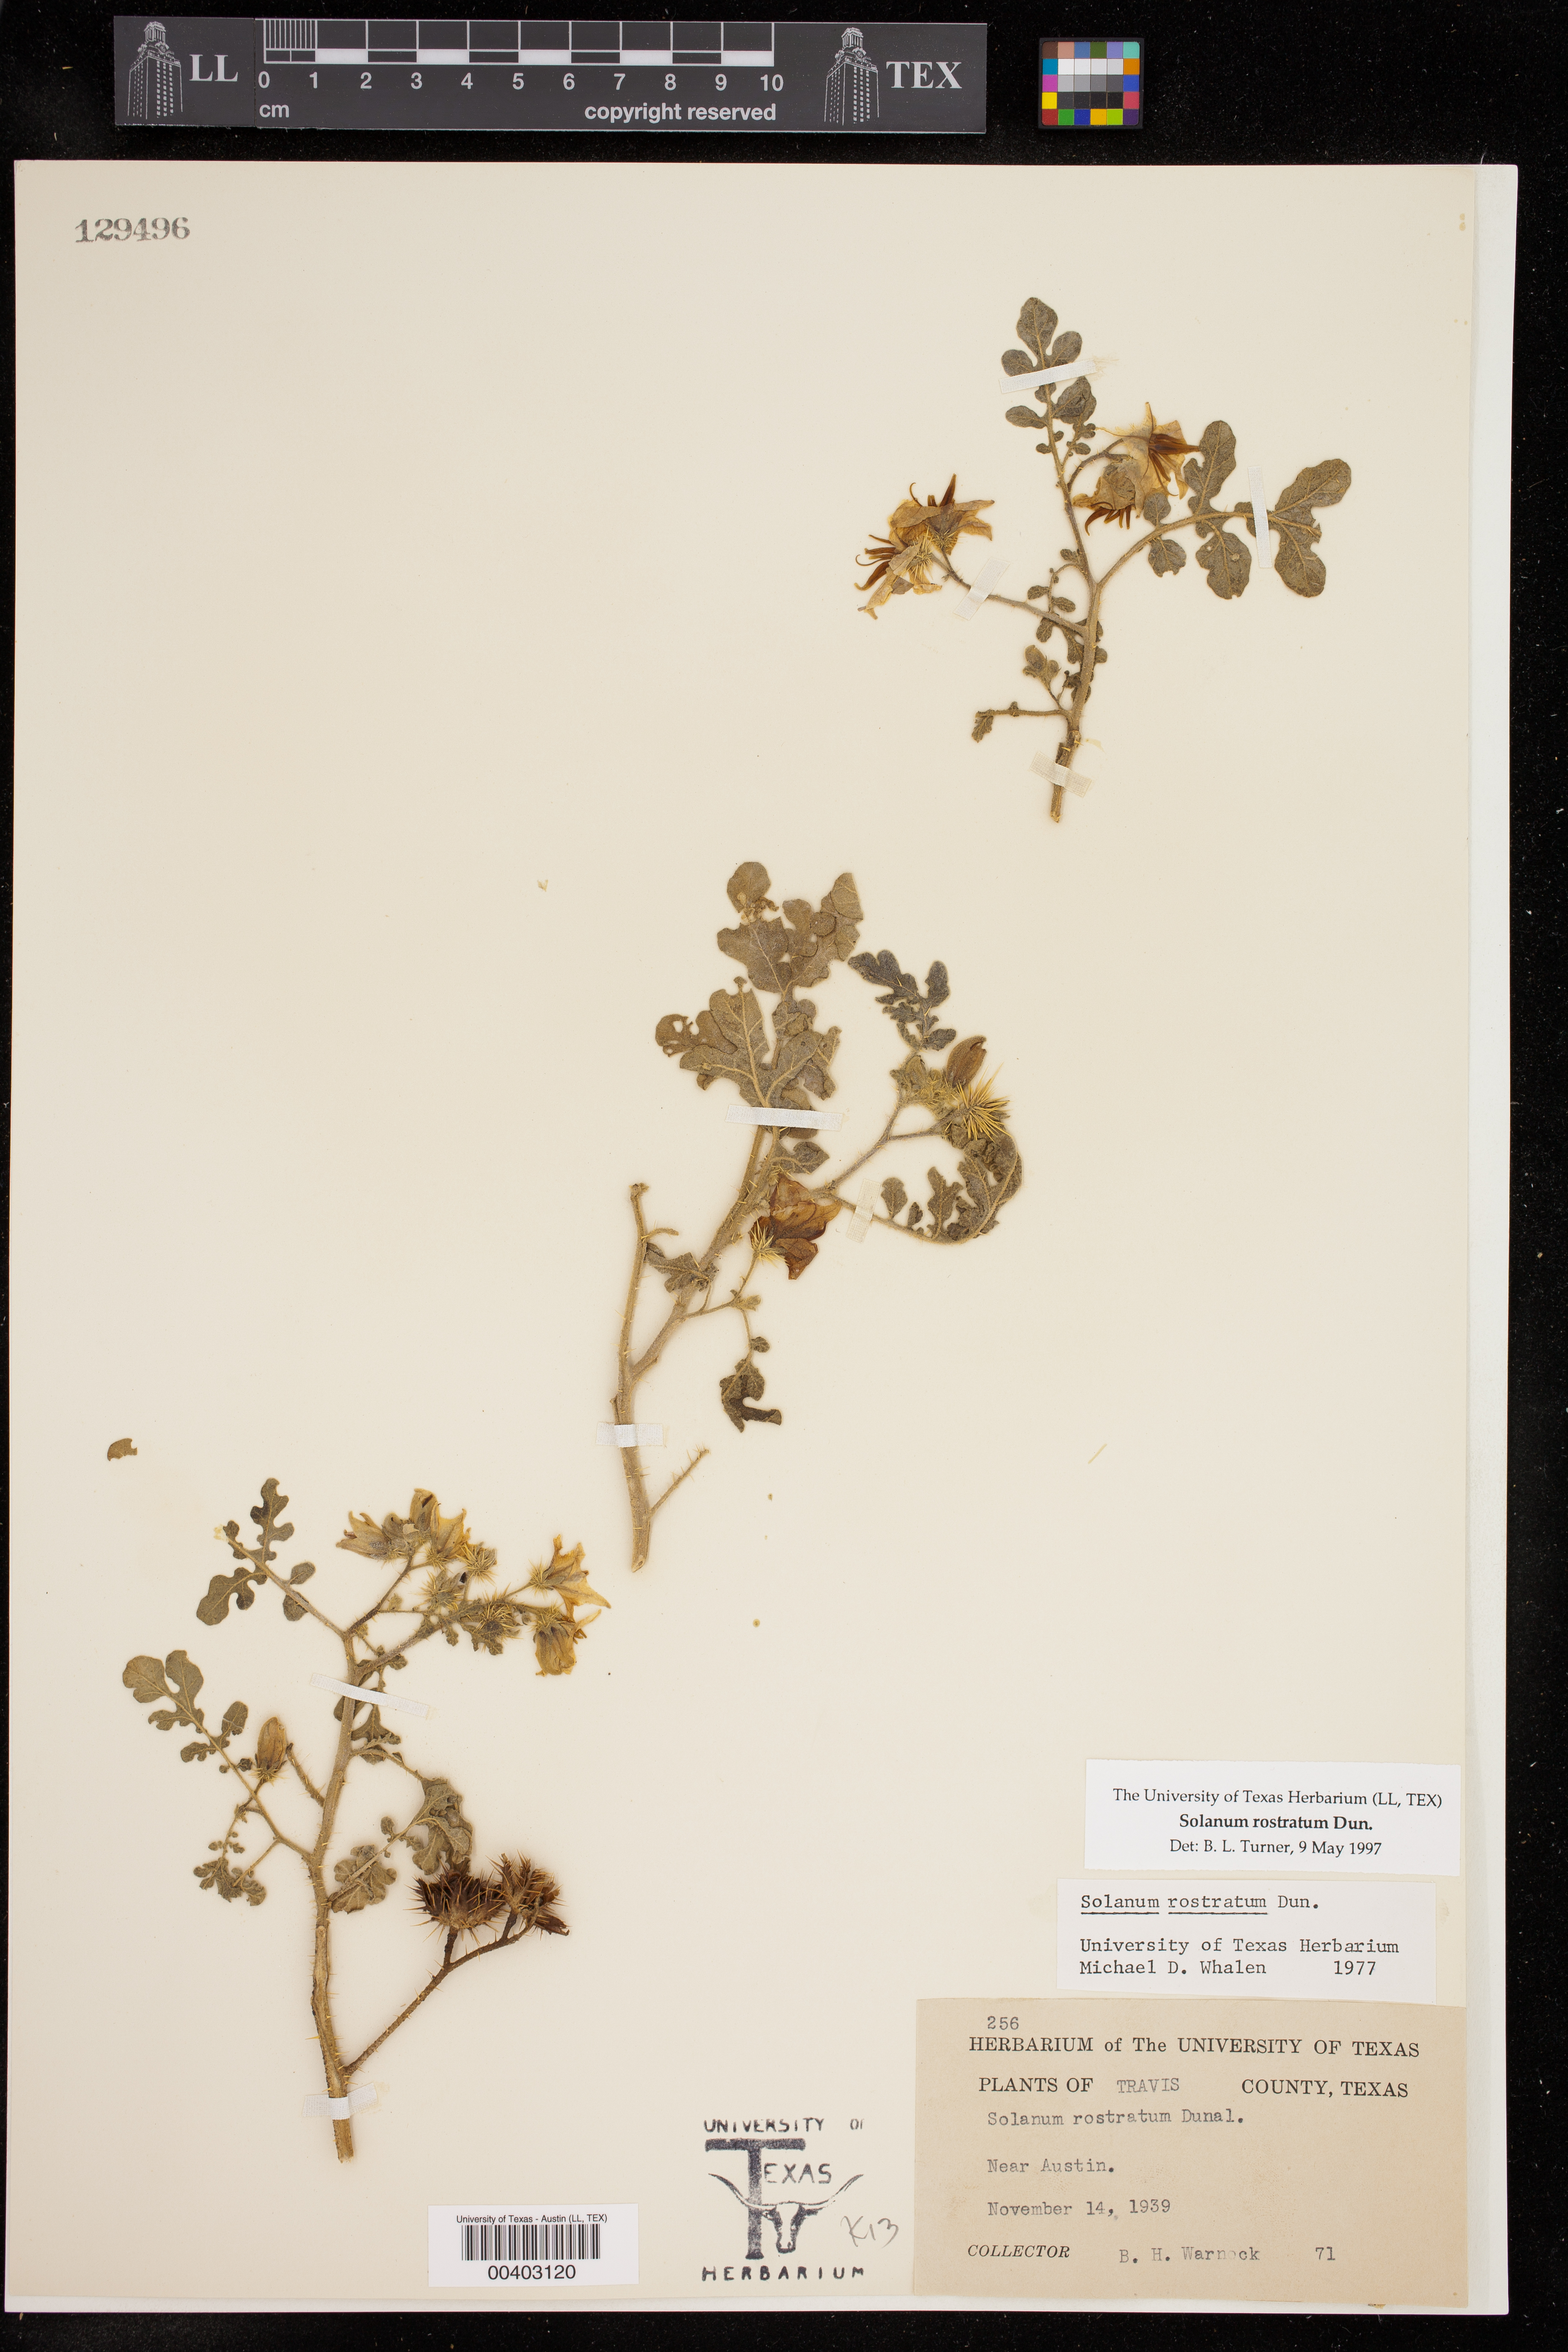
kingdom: Plantae
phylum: Tracheophyta
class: Magnoliopsida
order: Solanales
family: Solanaceae
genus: Solanum
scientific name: Solanum angustifolium
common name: Buffalobur nightshade
